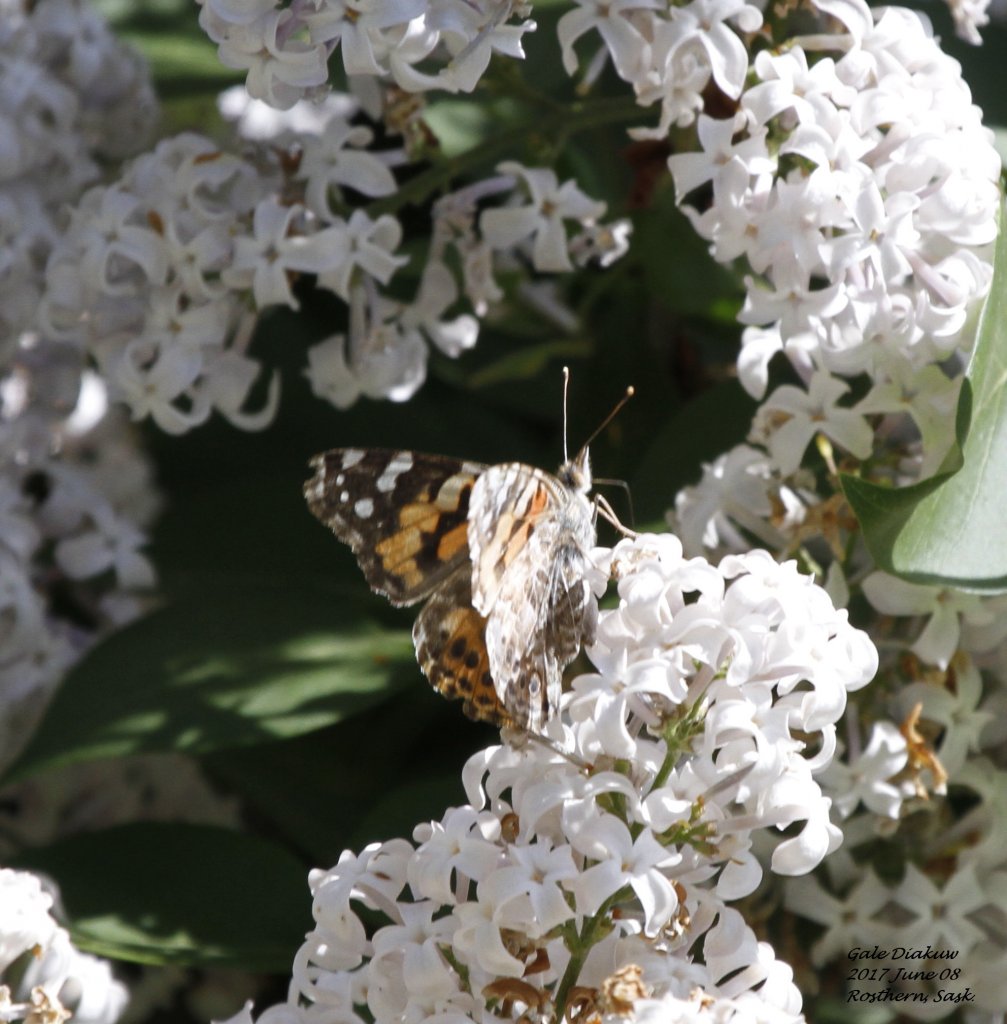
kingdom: Animalia
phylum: Arthropoda
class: Insecta
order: Lepidoptera
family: Nymphalidae
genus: Vanessa
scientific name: Vanessa cardui
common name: Painted Lady
